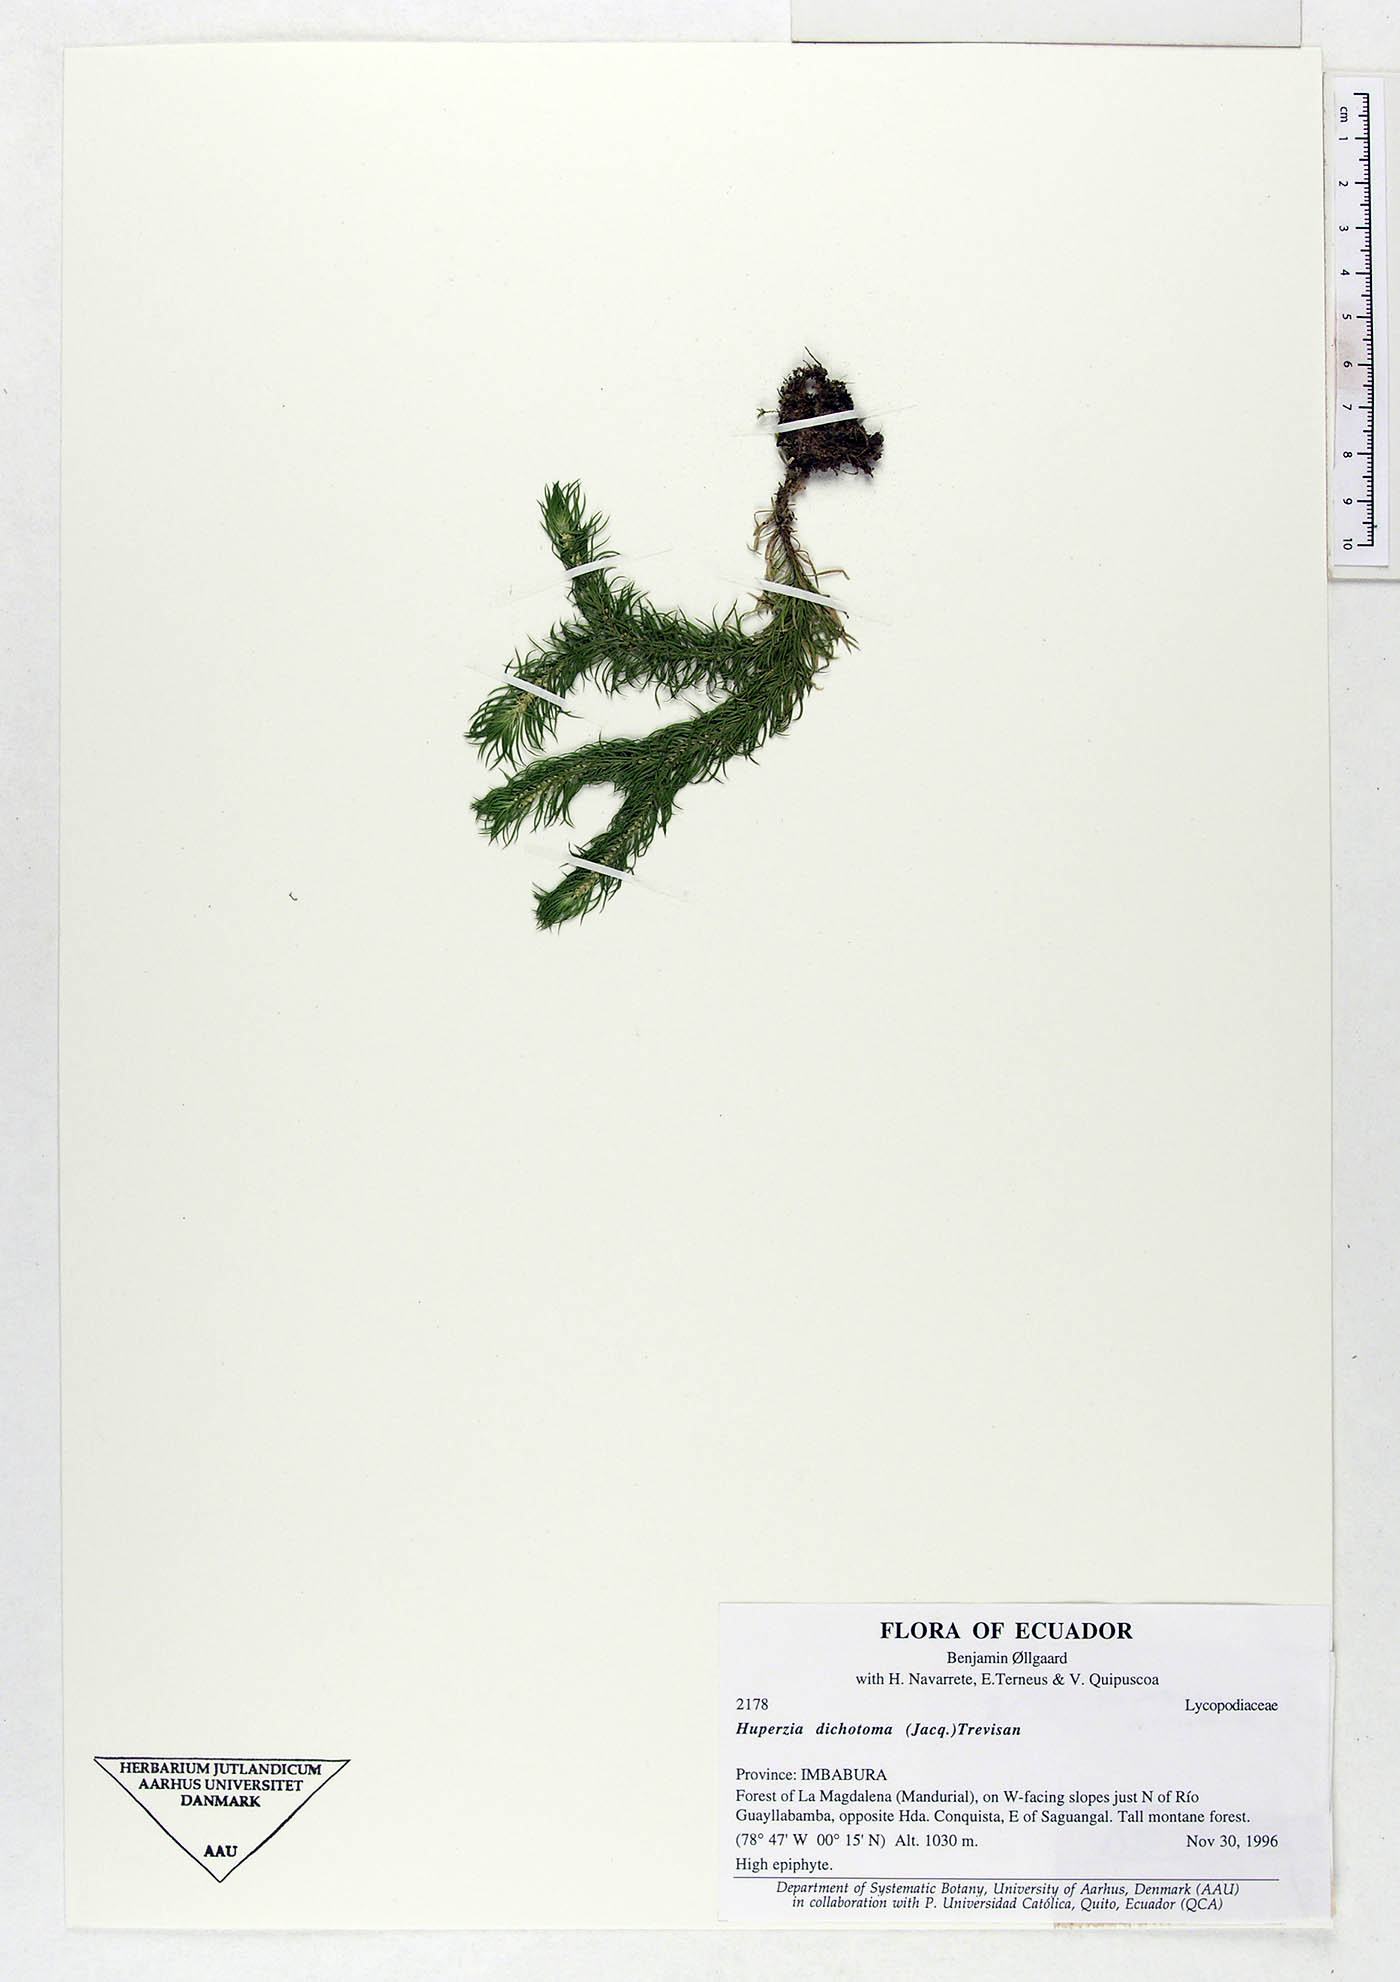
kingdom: Plantae
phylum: Tracheophyta
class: Lycopodiopsida
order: Lycopodiales
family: Lycopodiaceae
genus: Phlegmariurus
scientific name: Phlegmariurus dichotomus
